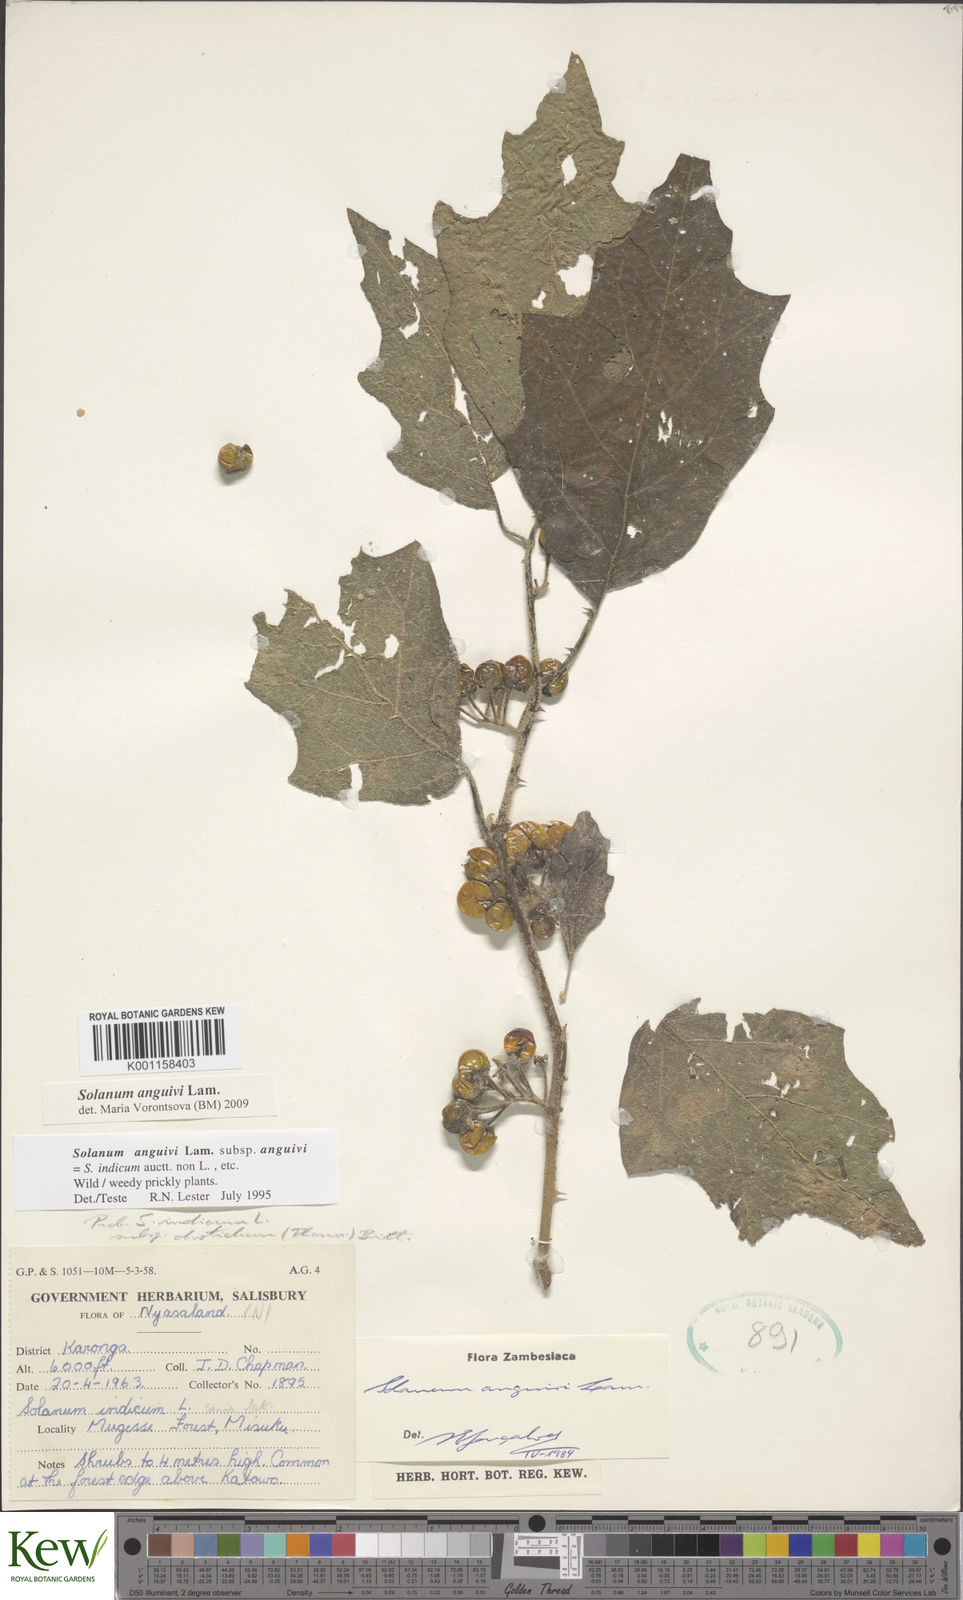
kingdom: Plantae
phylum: Tracheophyta
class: Magnoliopsida
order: Solanales
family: Solanaceae
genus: Solanum
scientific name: Solanum anguivi
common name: Forest bitterberry
